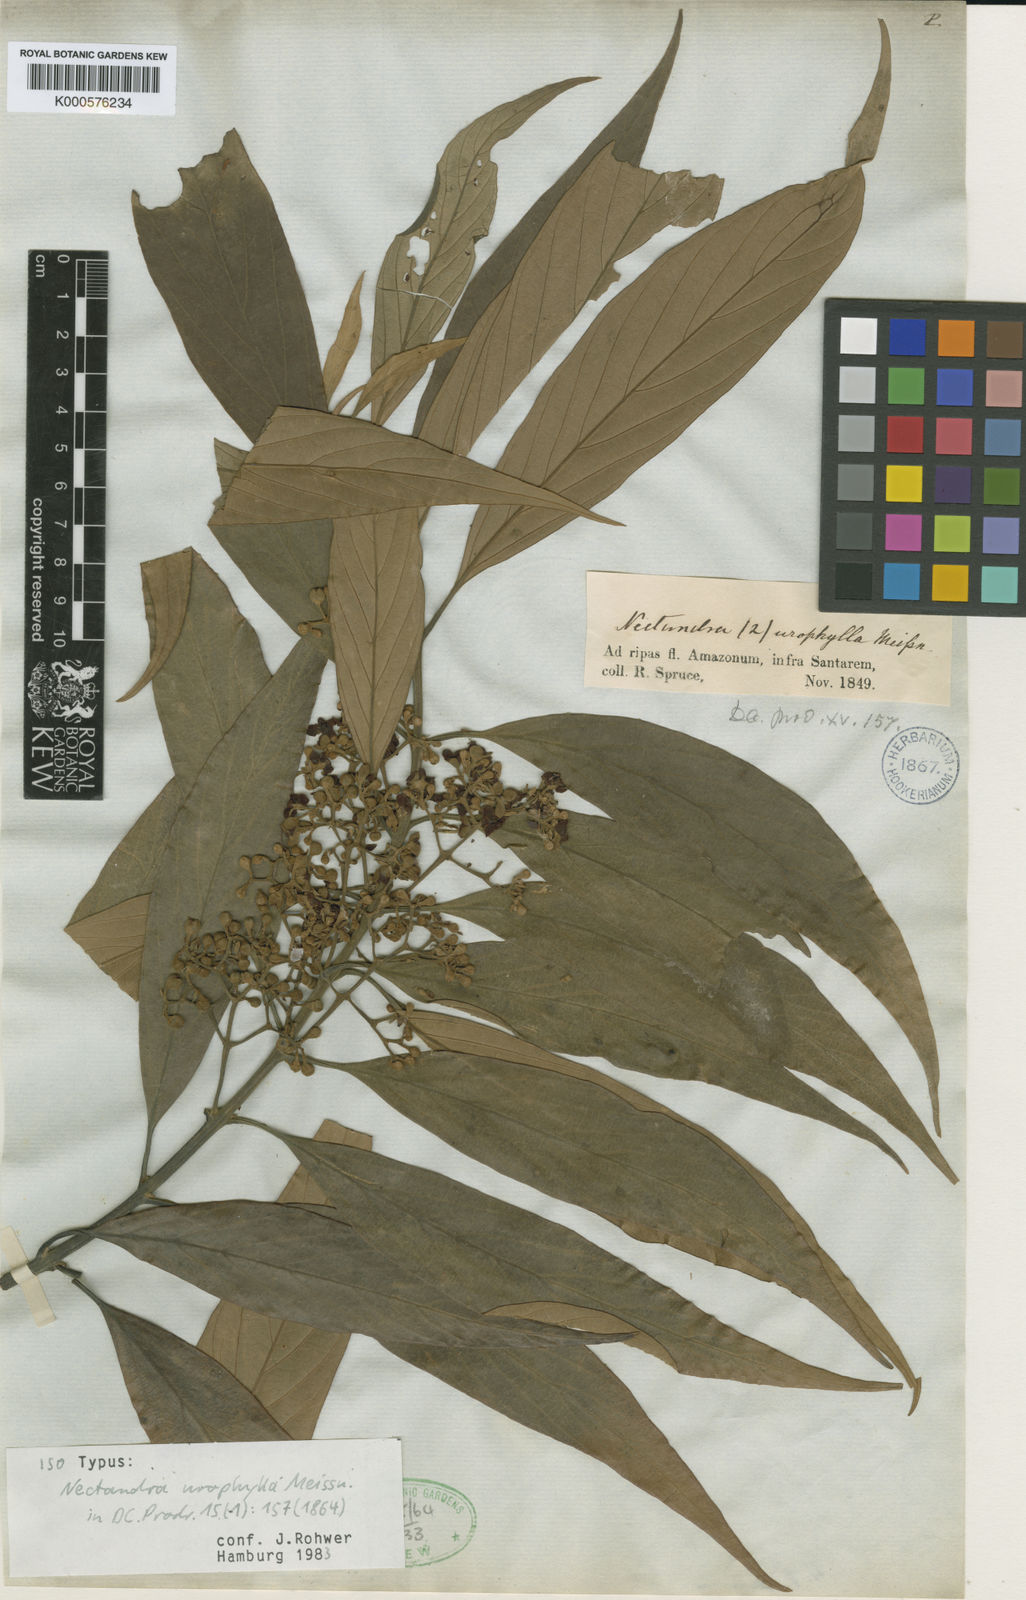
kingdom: Plantae
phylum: Tracheophyta
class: Magnoliopsida
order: Laurales
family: Lauraceae
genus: Nectandra
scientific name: Nectandra amazonum
